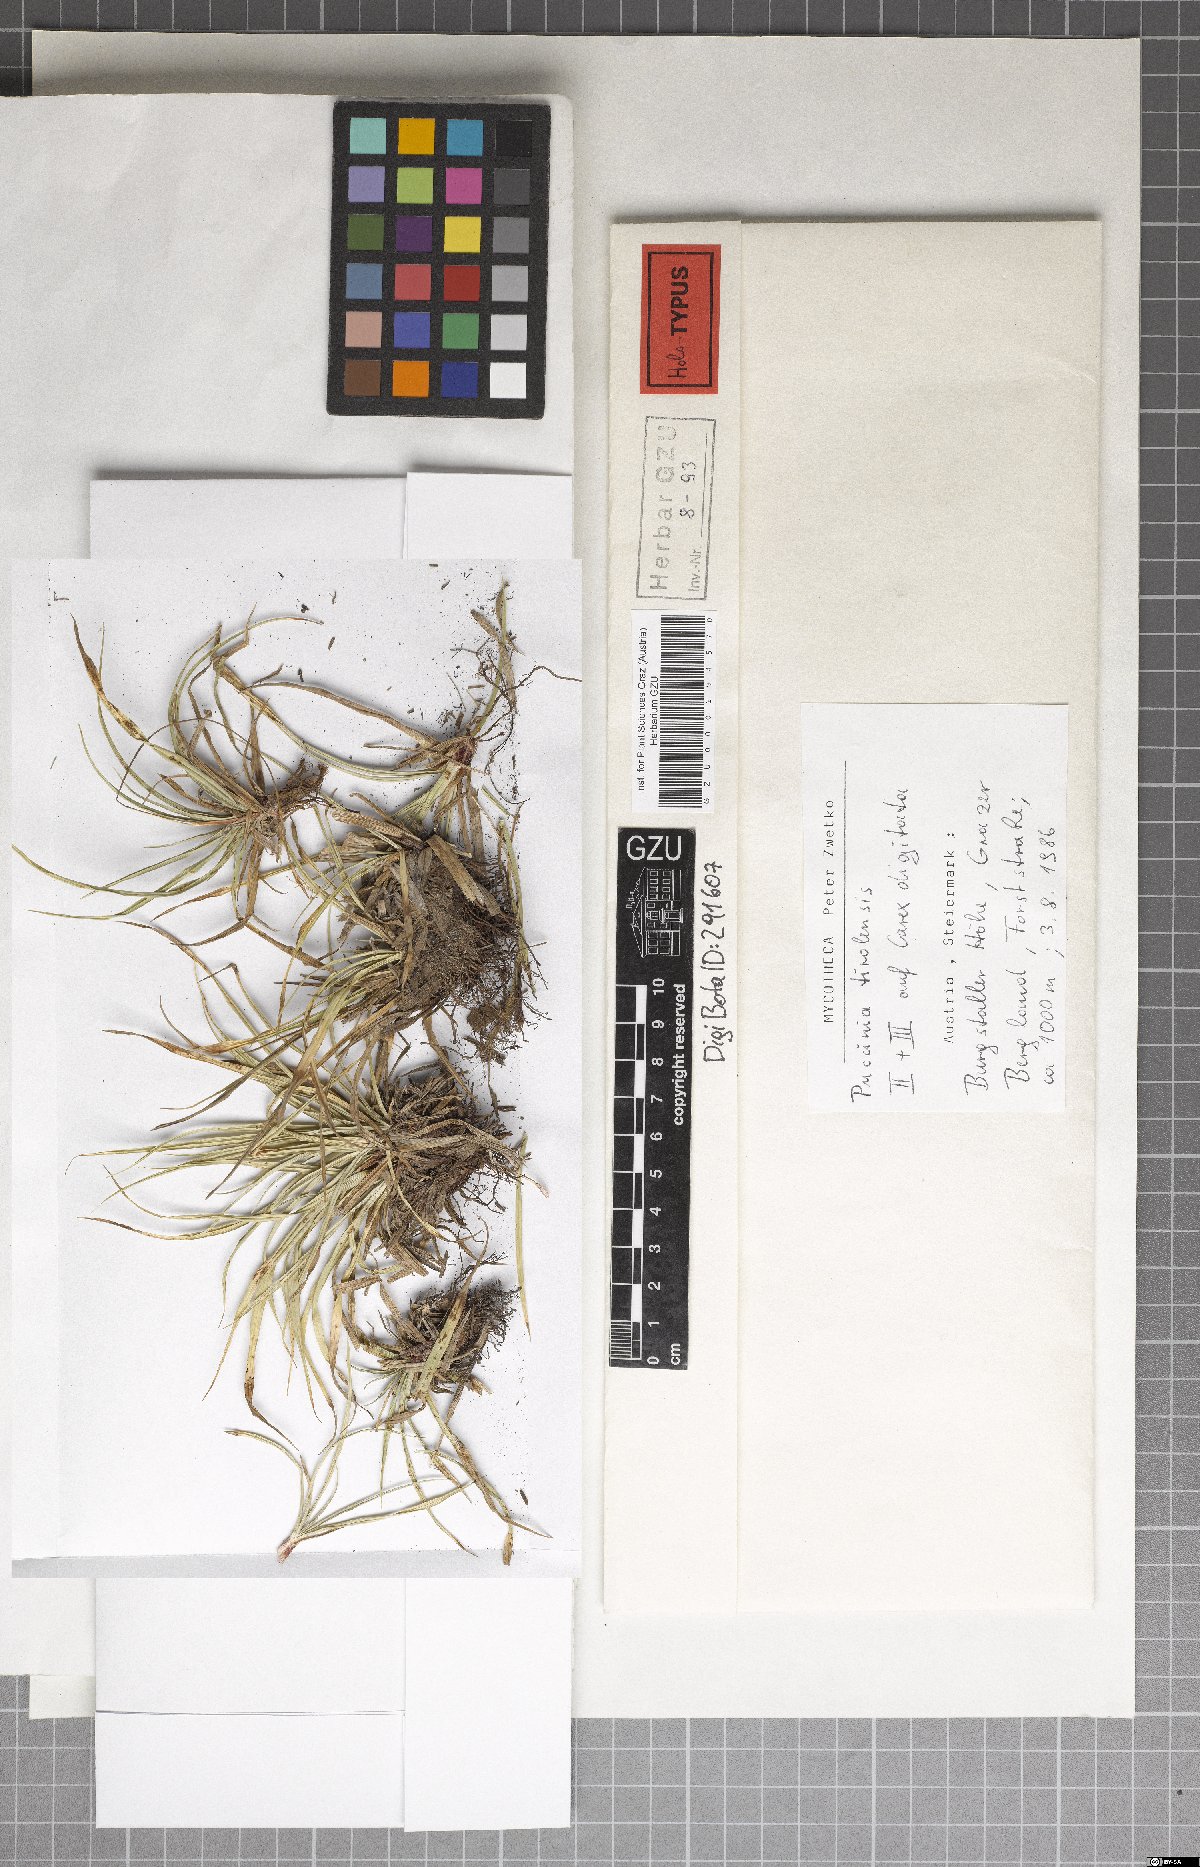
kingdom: Fungi
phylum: Basidiomycota
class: Pucciniomycetes
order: Pucciniales
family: Pucciniaceae
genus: Puccinia
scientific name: Puccinia tirolensis
